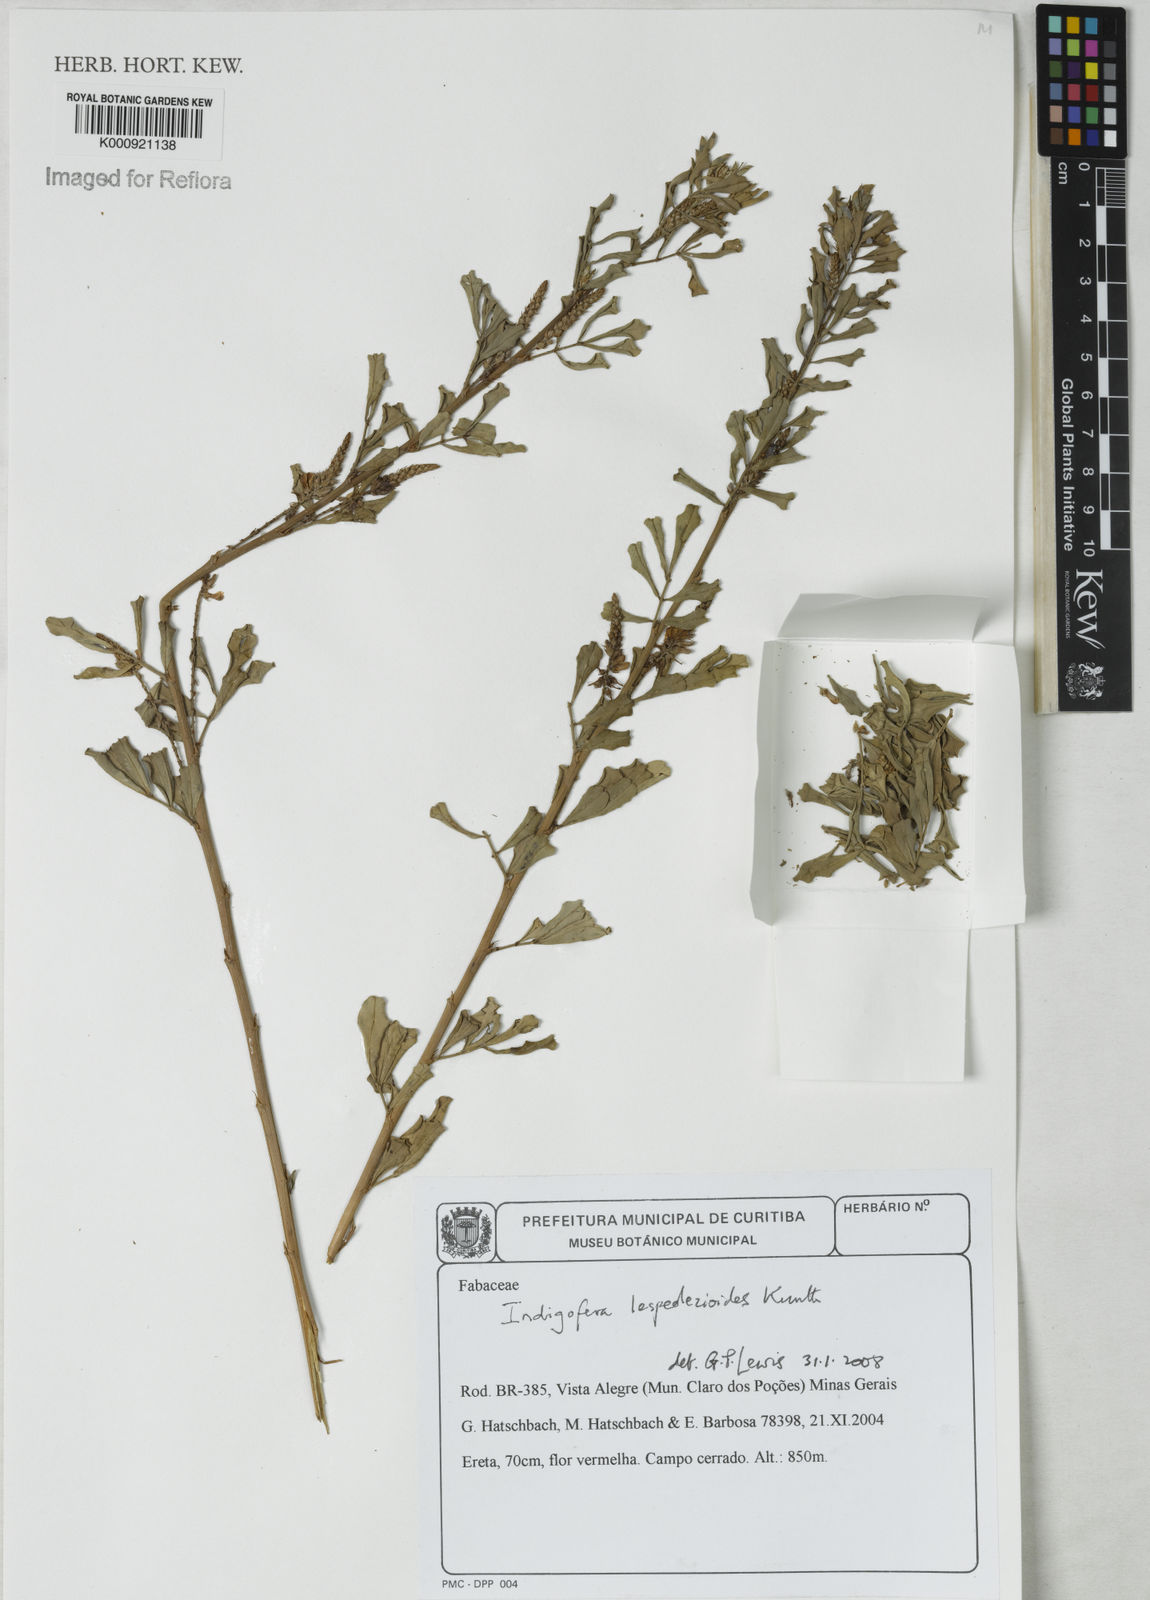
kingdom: Plantae
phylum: Tracheophyta
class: Magnoliopsida
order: Fabales
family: Fabaceae
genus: Indigofera
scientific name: Indigofera lespedezioides
